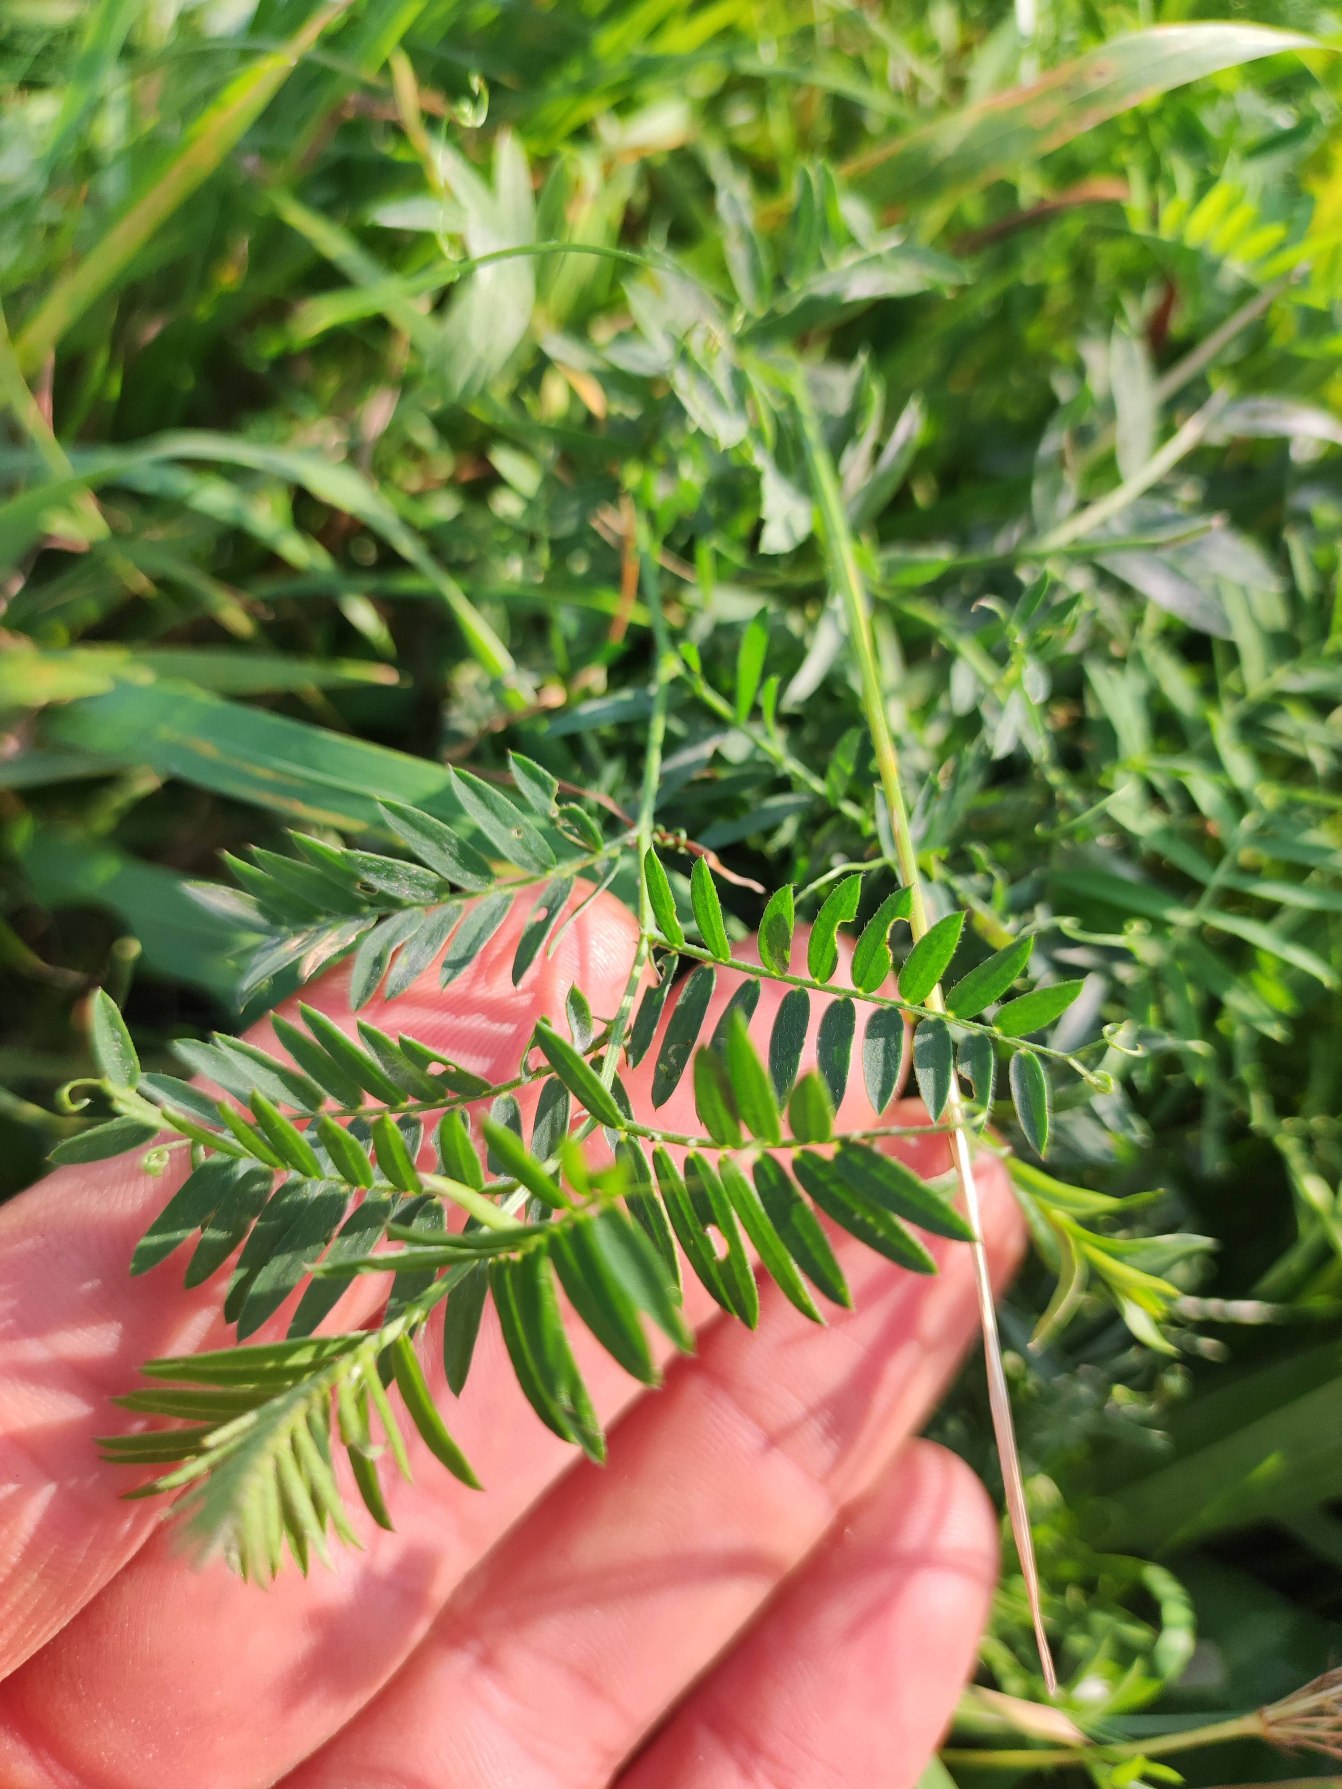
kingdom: Plantae
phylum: Tracheophyta
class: Magnoliopsida
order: Fabales
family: Fabaceae
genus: Vicia
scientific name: Vicia cracca
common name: Muse-vikke
